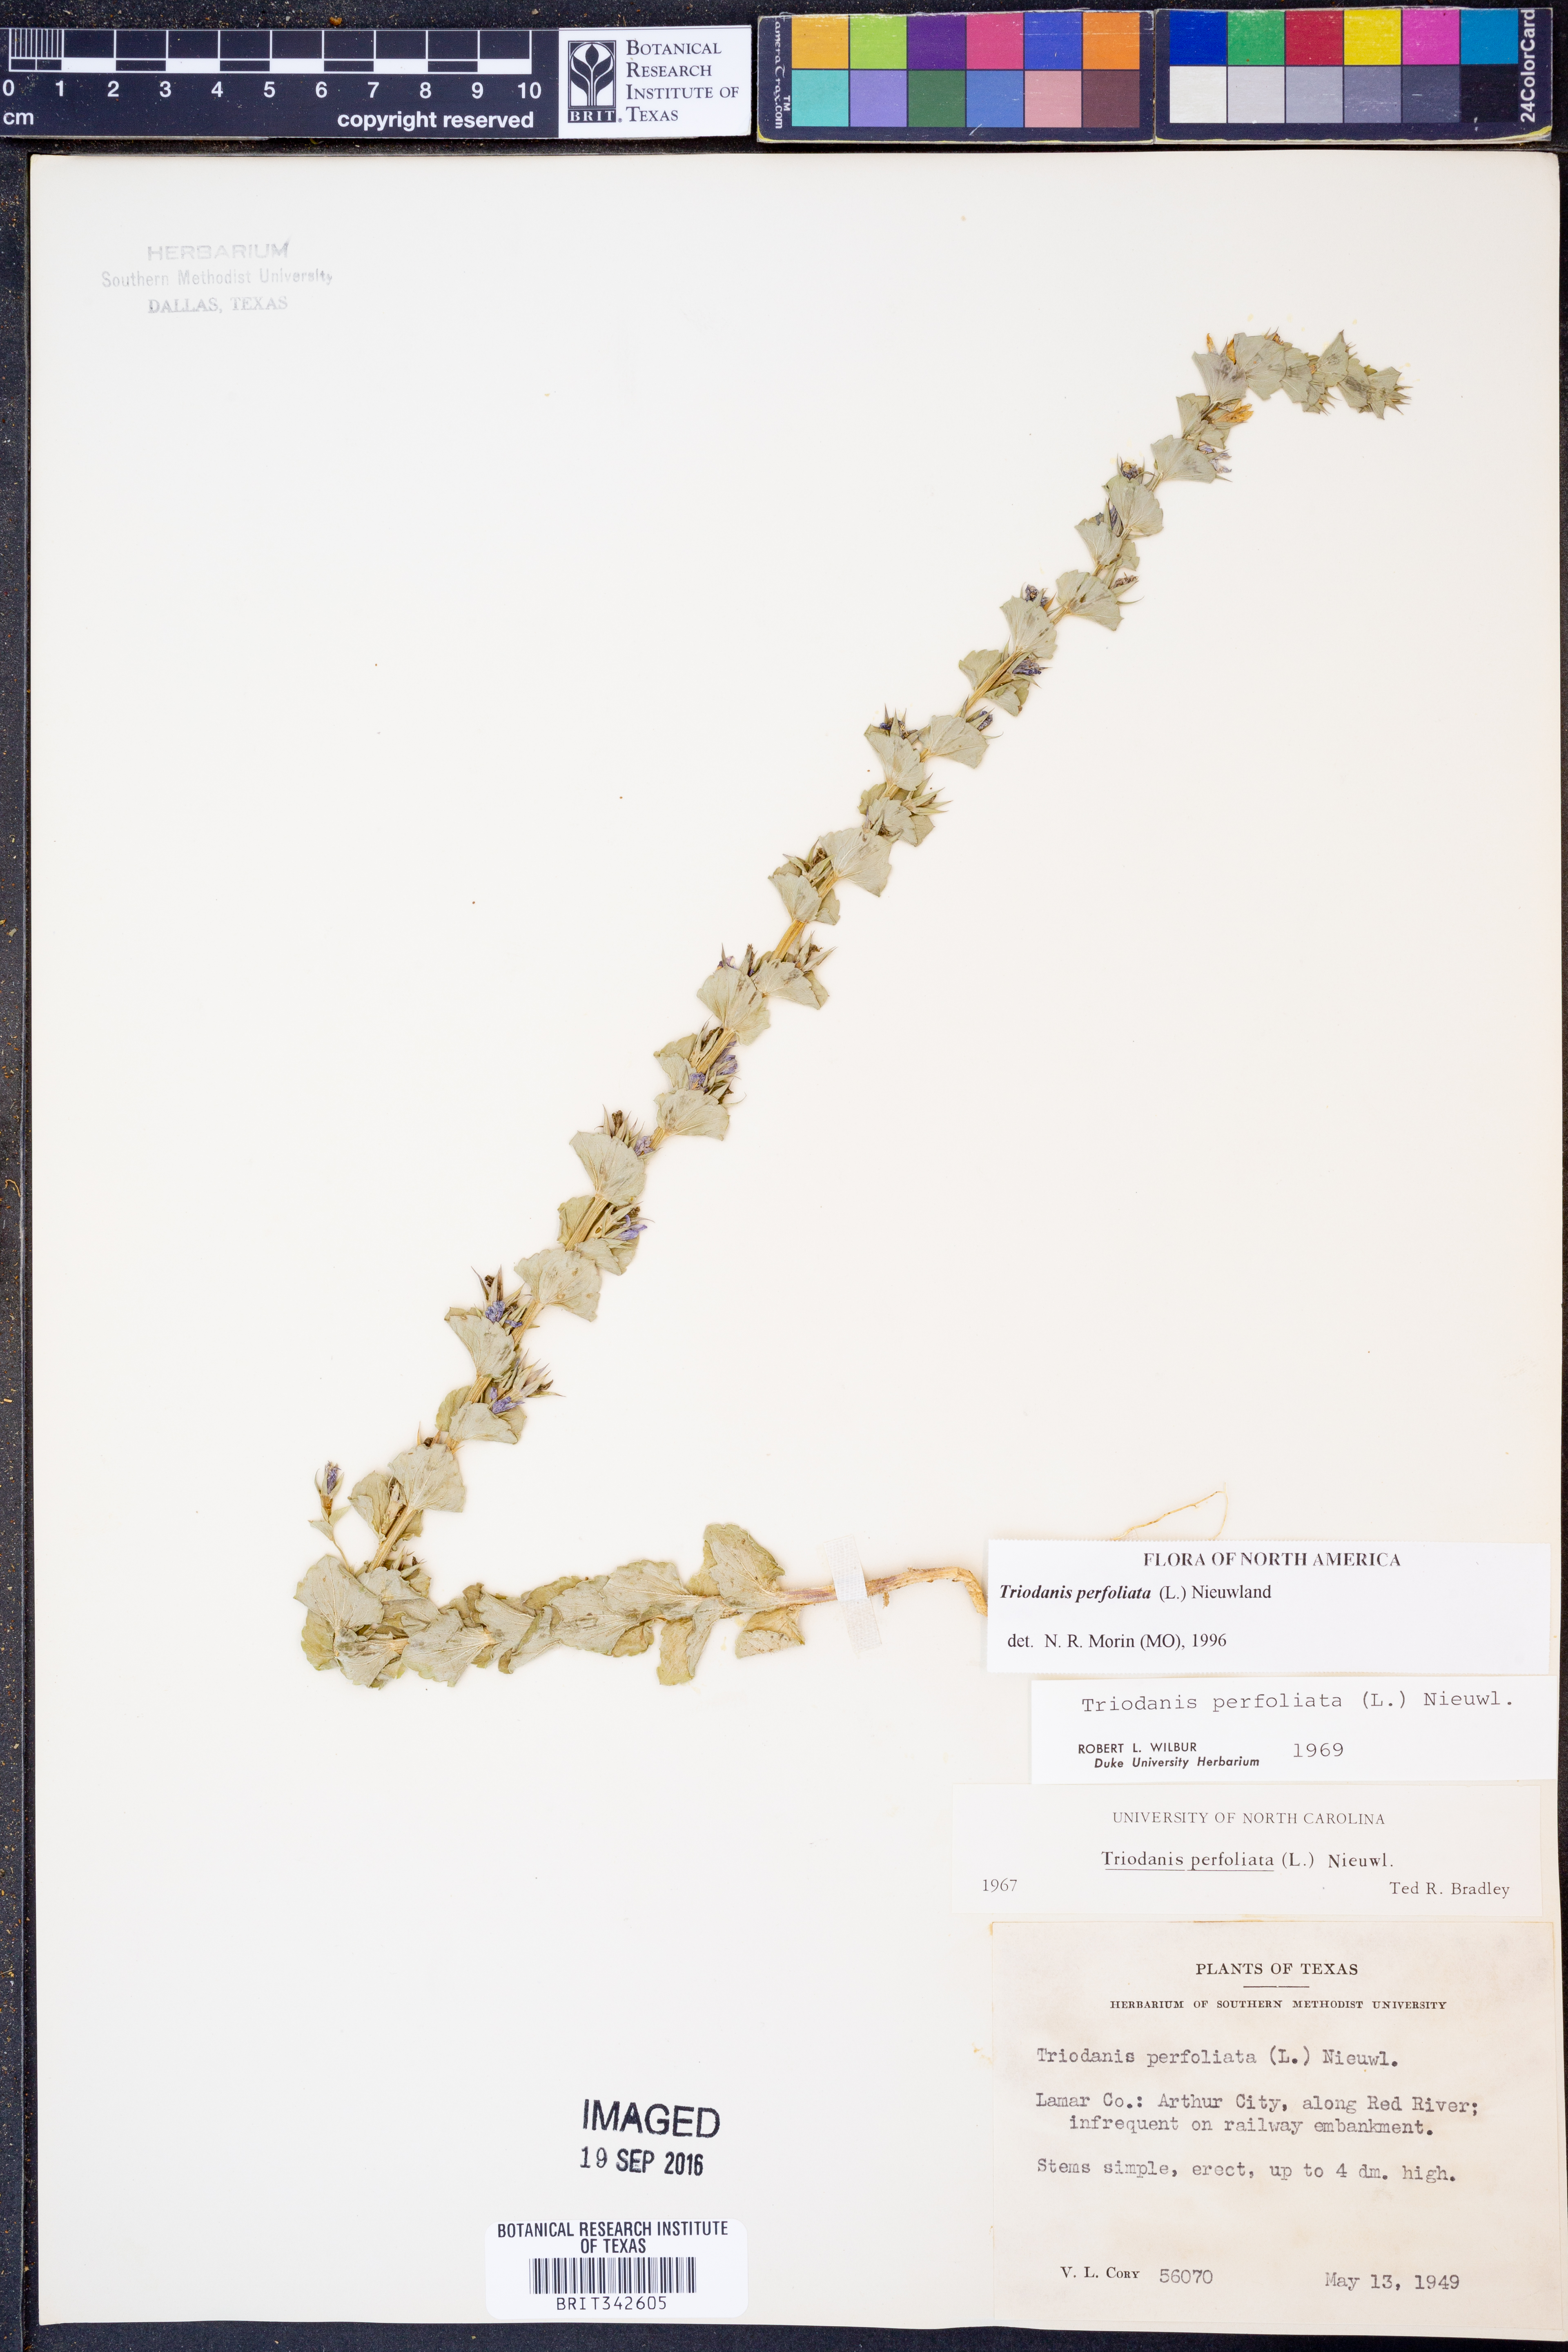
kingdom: Plantae
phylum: Tracheophyta
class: Magnoliopsida
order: Asterales
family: Campanulaceae
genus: Triodanis
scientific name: Triodanis perfoliata
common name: Clasping venus' looking-glass
